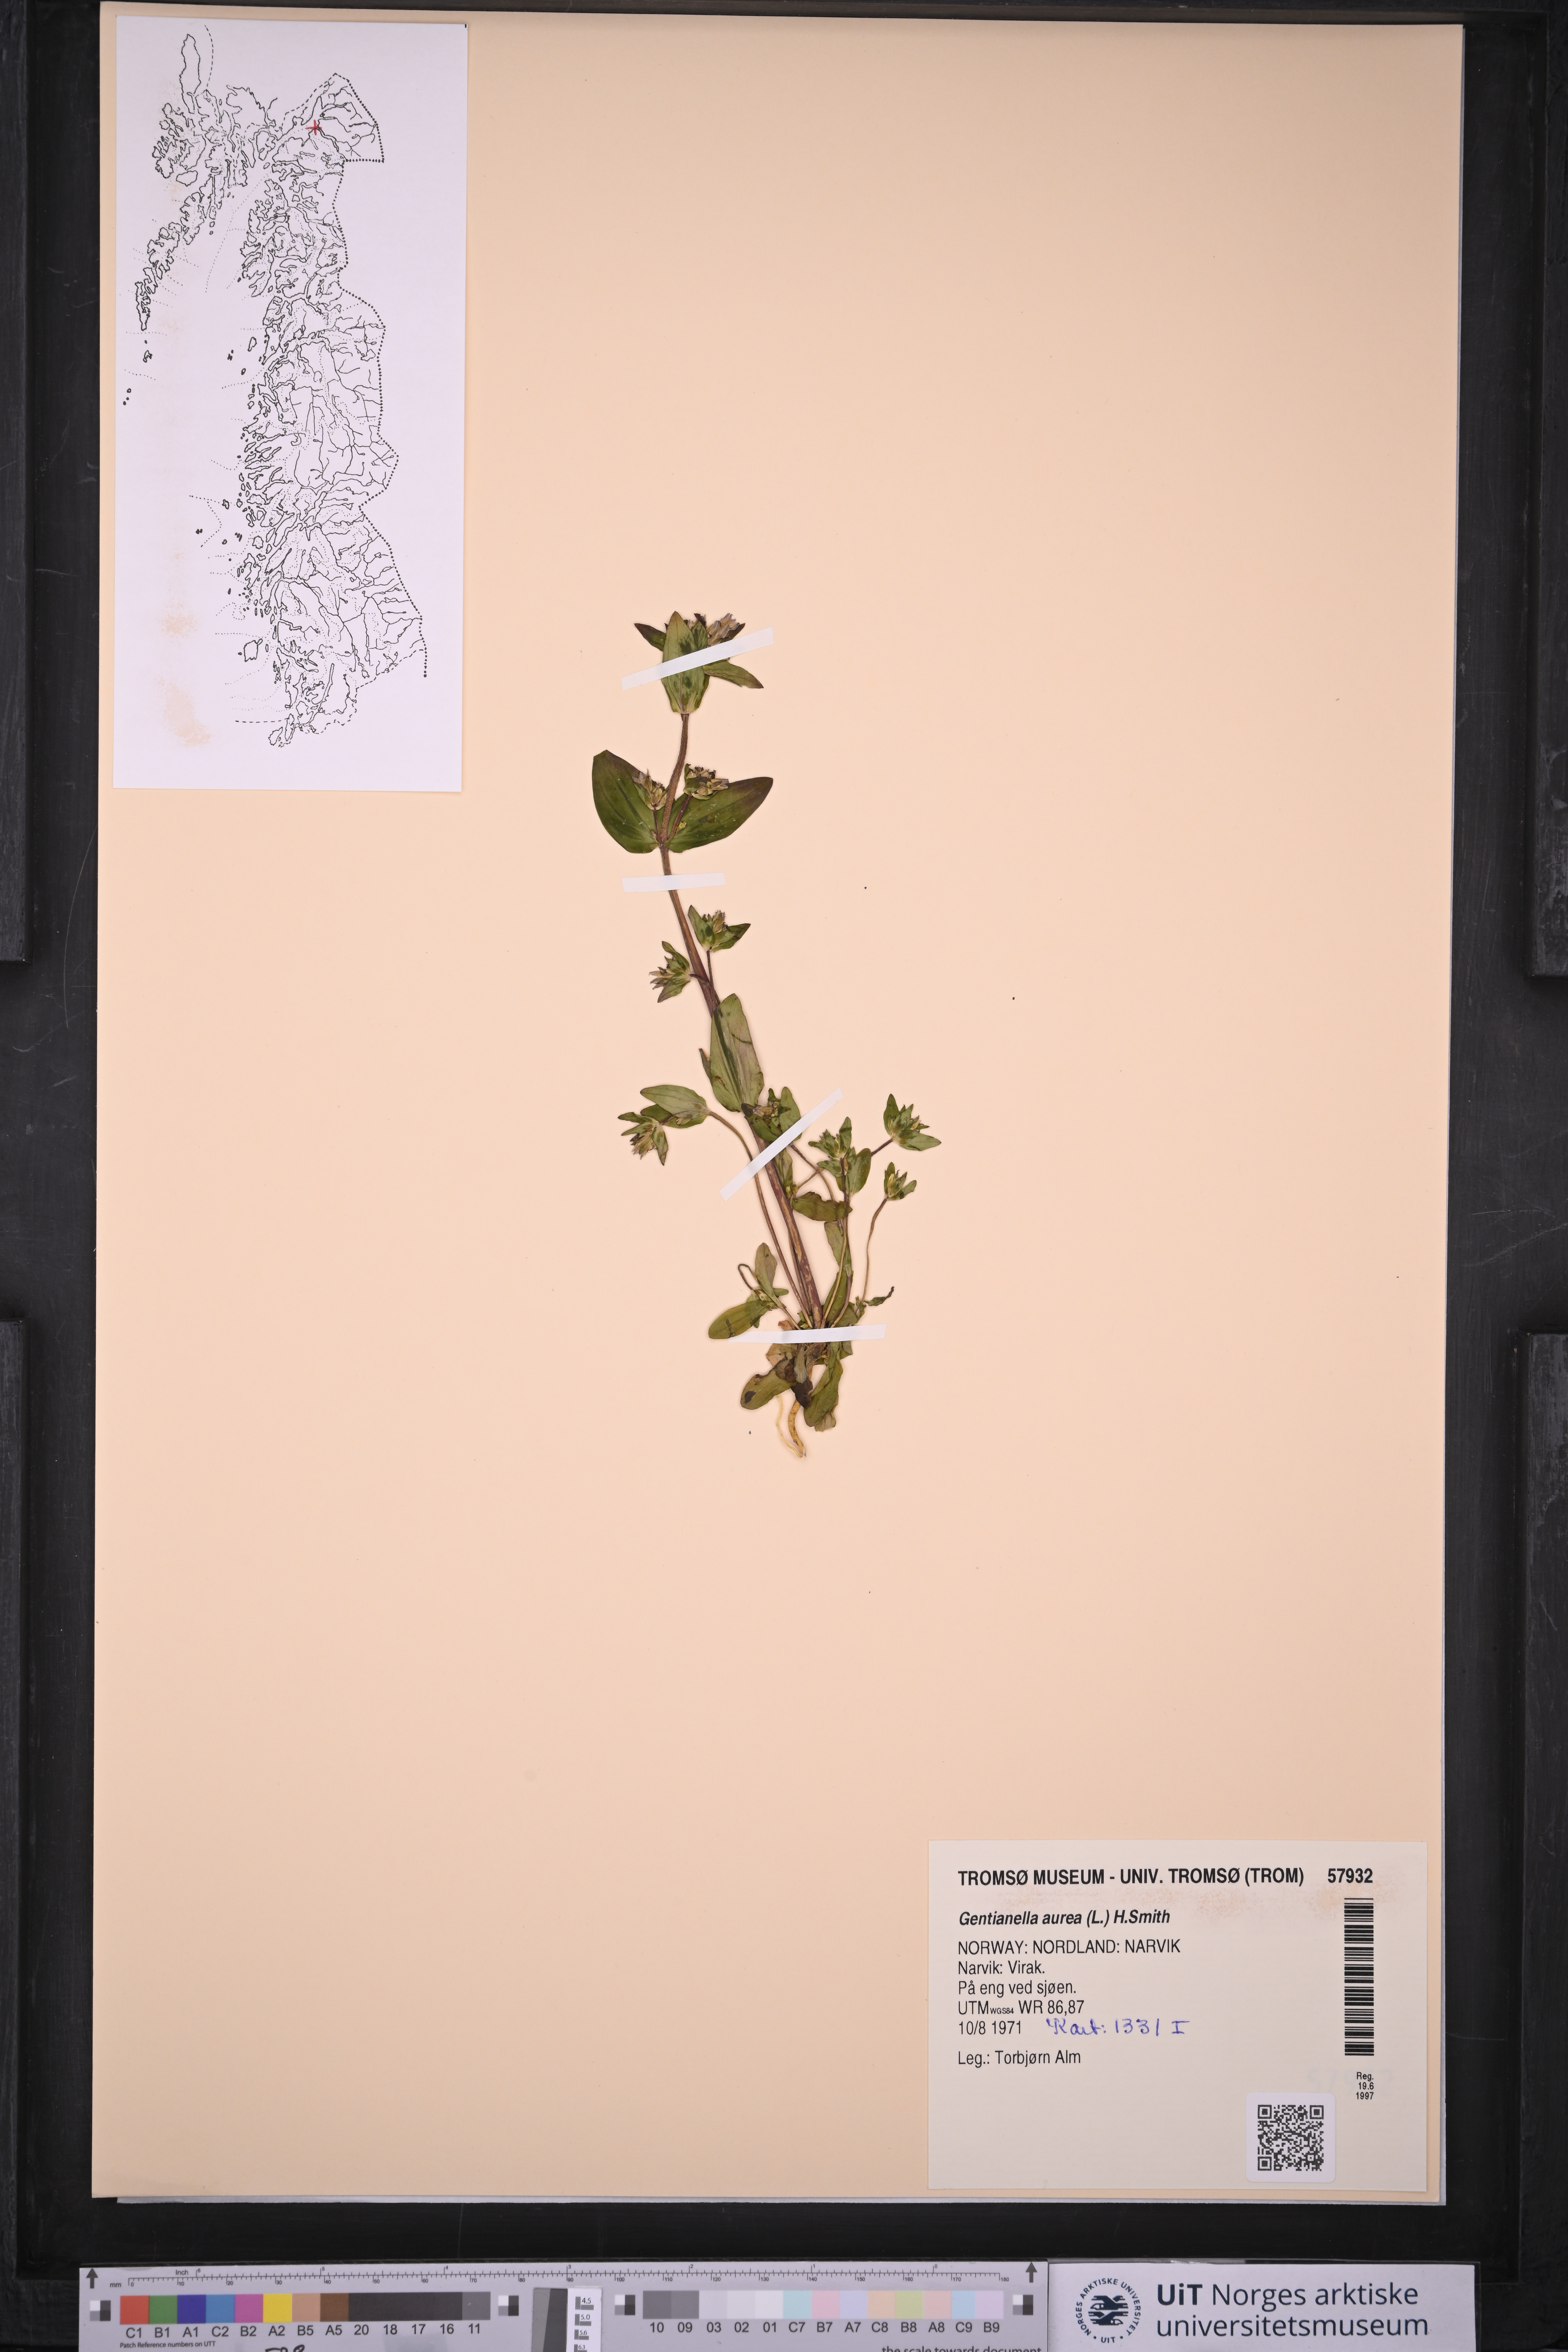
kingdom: Plantae
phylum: Tracheophyta
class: Magnoliopsida
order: Gentianales
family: Gentianaceae
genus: Gentianella
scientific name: Gentianella aurea
